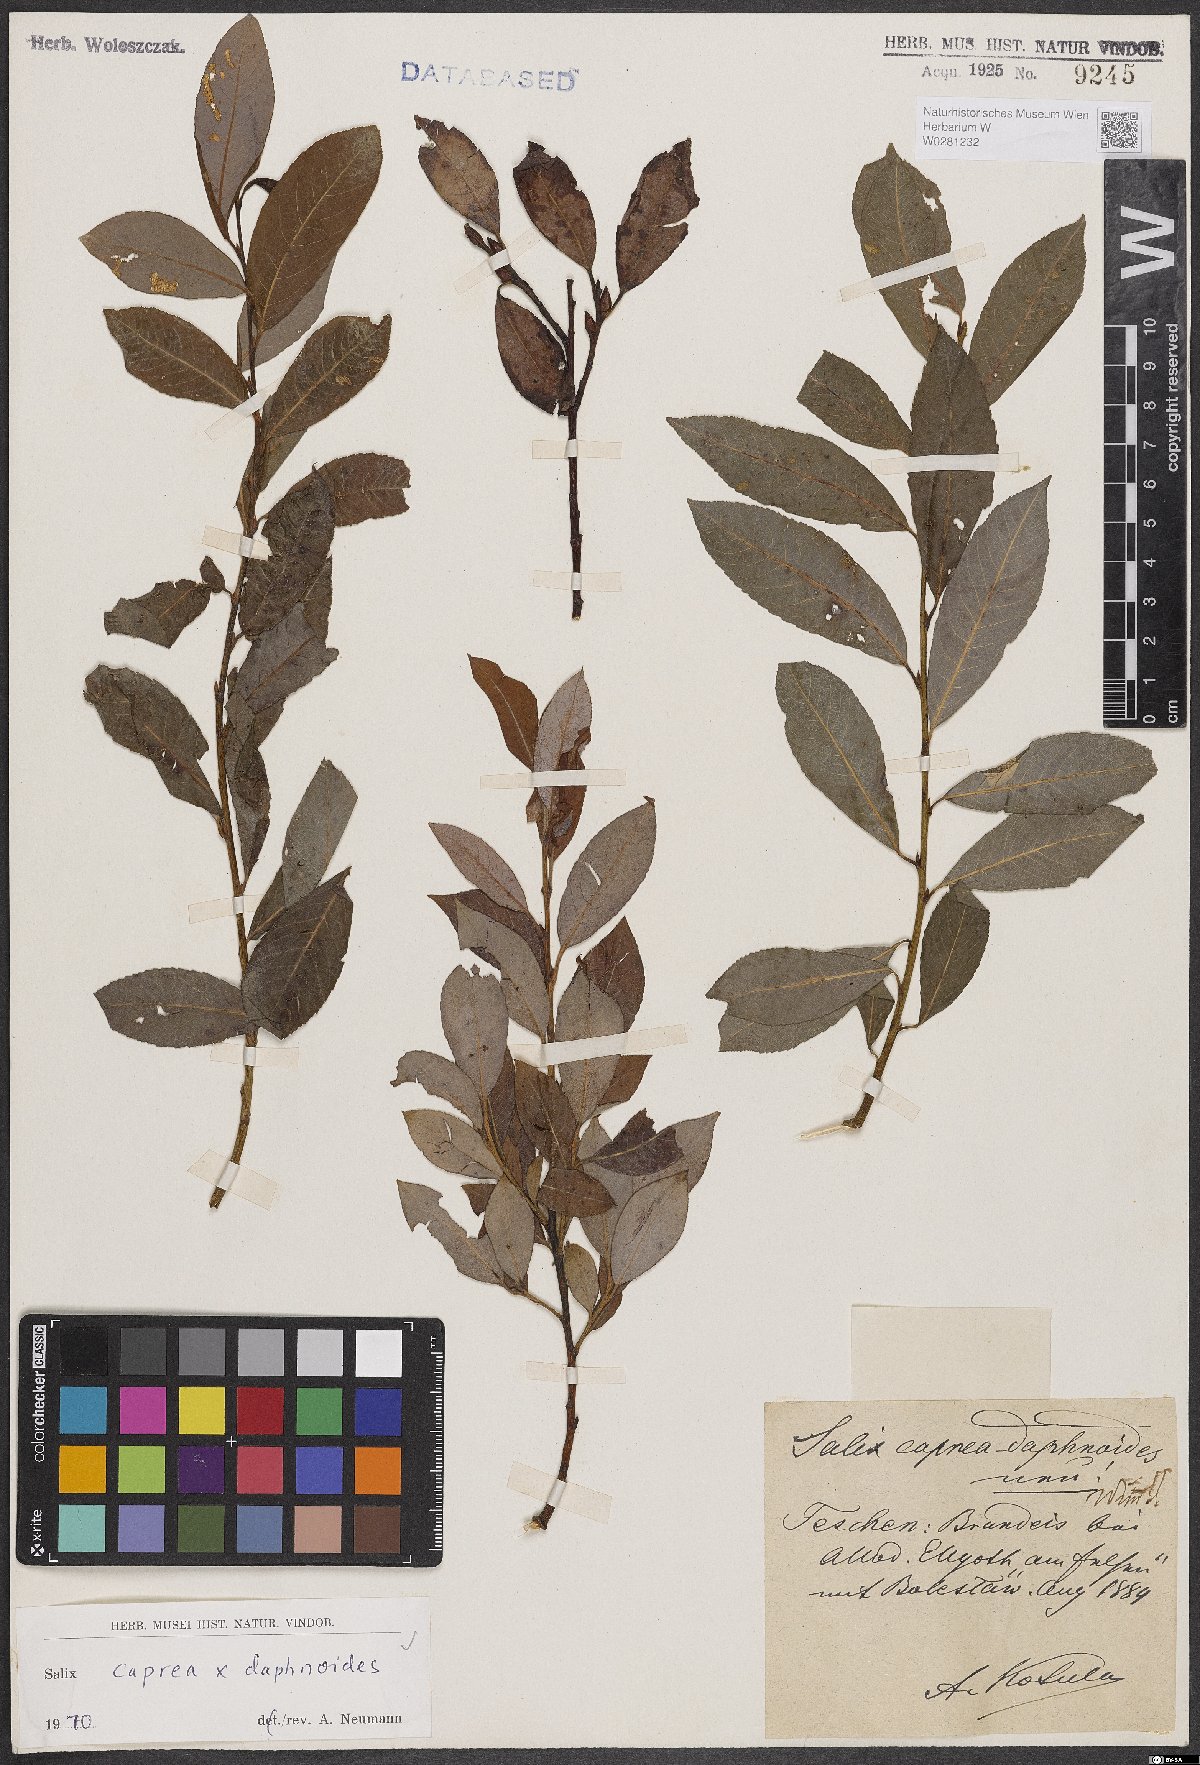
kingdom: Plantae
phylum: Tracheophyta
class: Magnoliopsida
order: Malpighiales
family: Salicaceae
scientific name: Salicaceae
